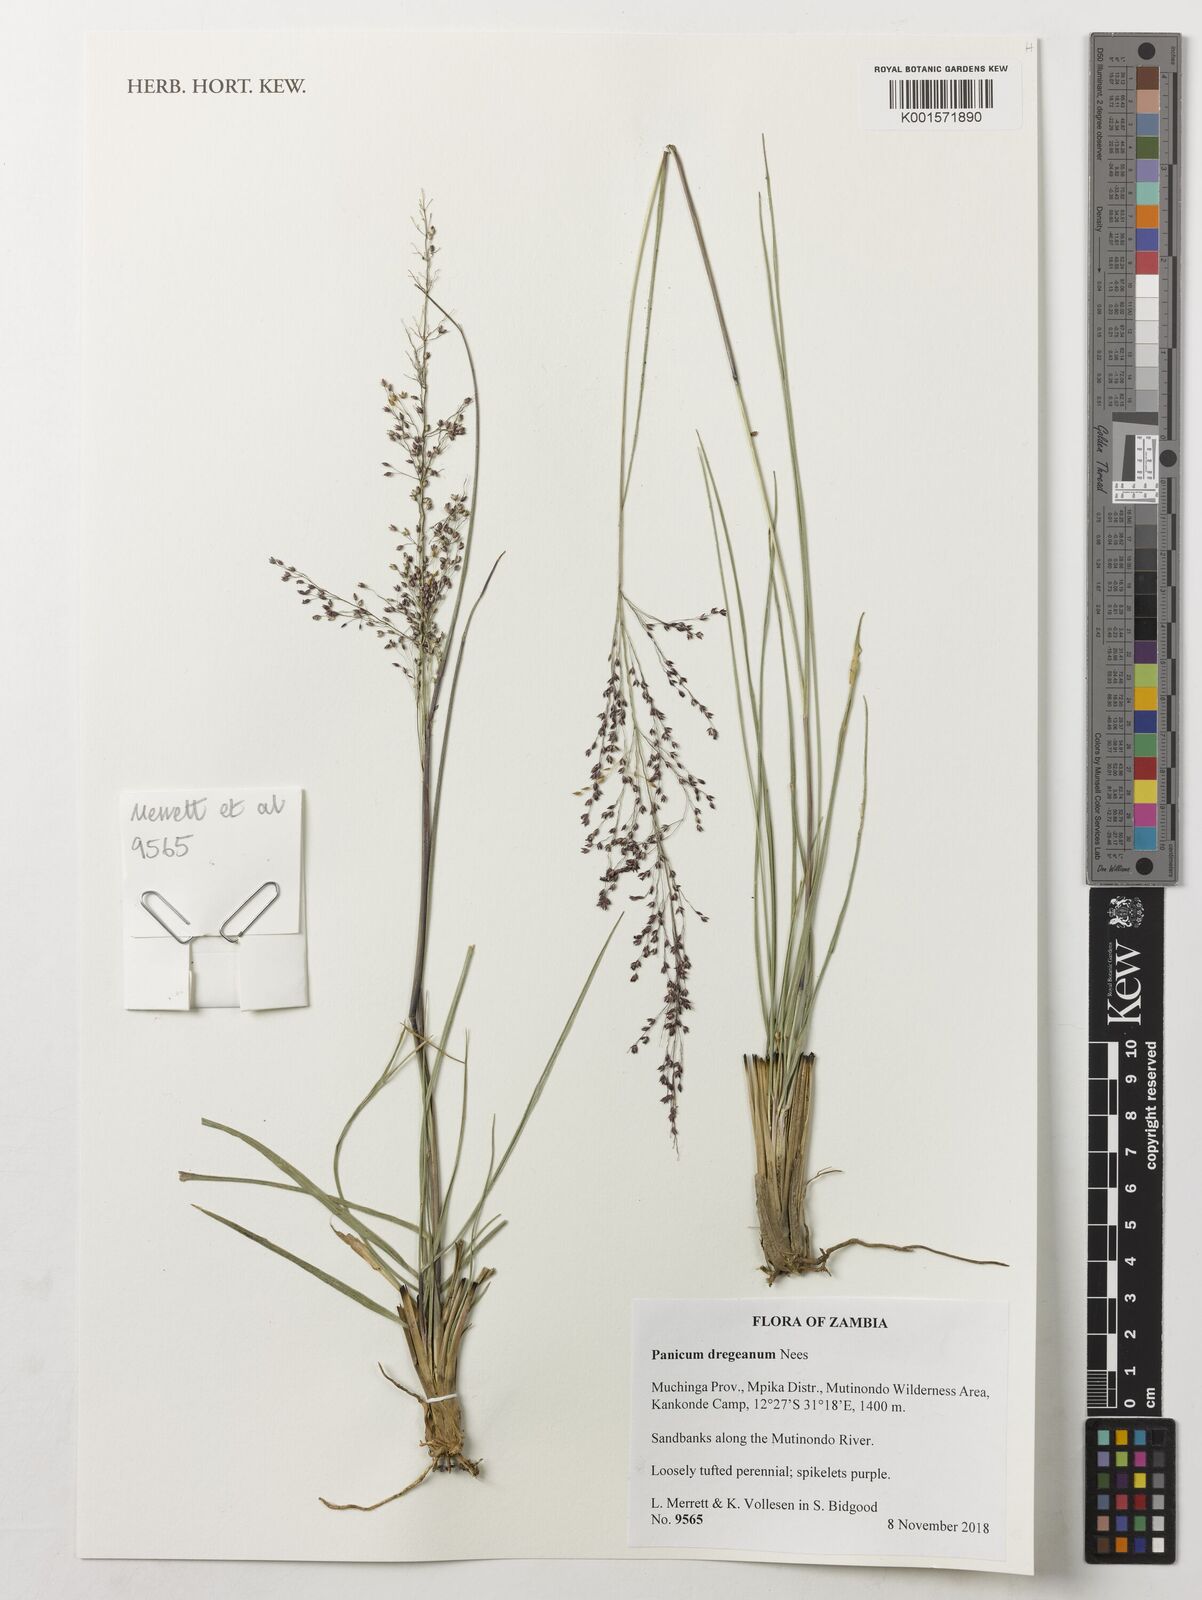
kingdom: Plantae
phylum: Tracheophyta
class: Liliopsida
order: Poales
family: Poaceae
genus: Panicum
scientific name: Panicum dregeanum
